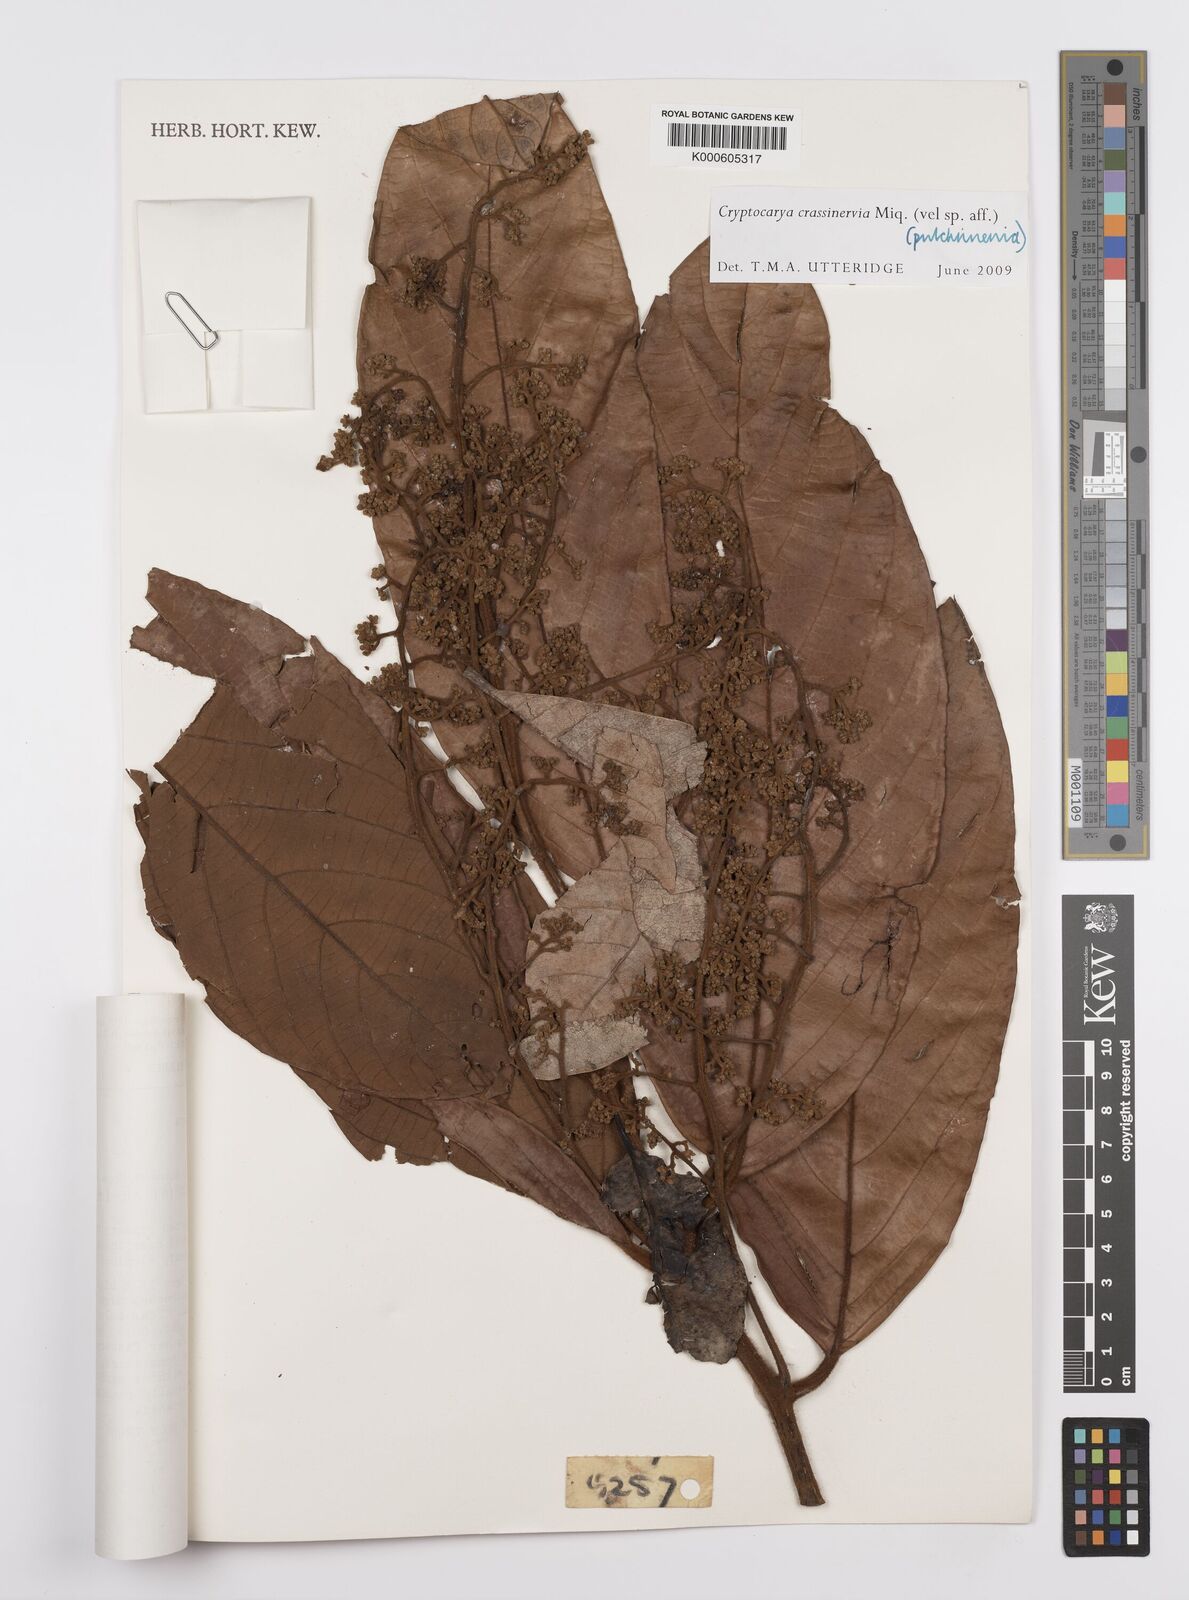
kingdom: Plantae
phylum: Tracheophyta
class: Magnoliopsida
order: Laurales
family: Lauraceae
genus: Cryptocarya
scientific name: Cryptocarya diversifolia
